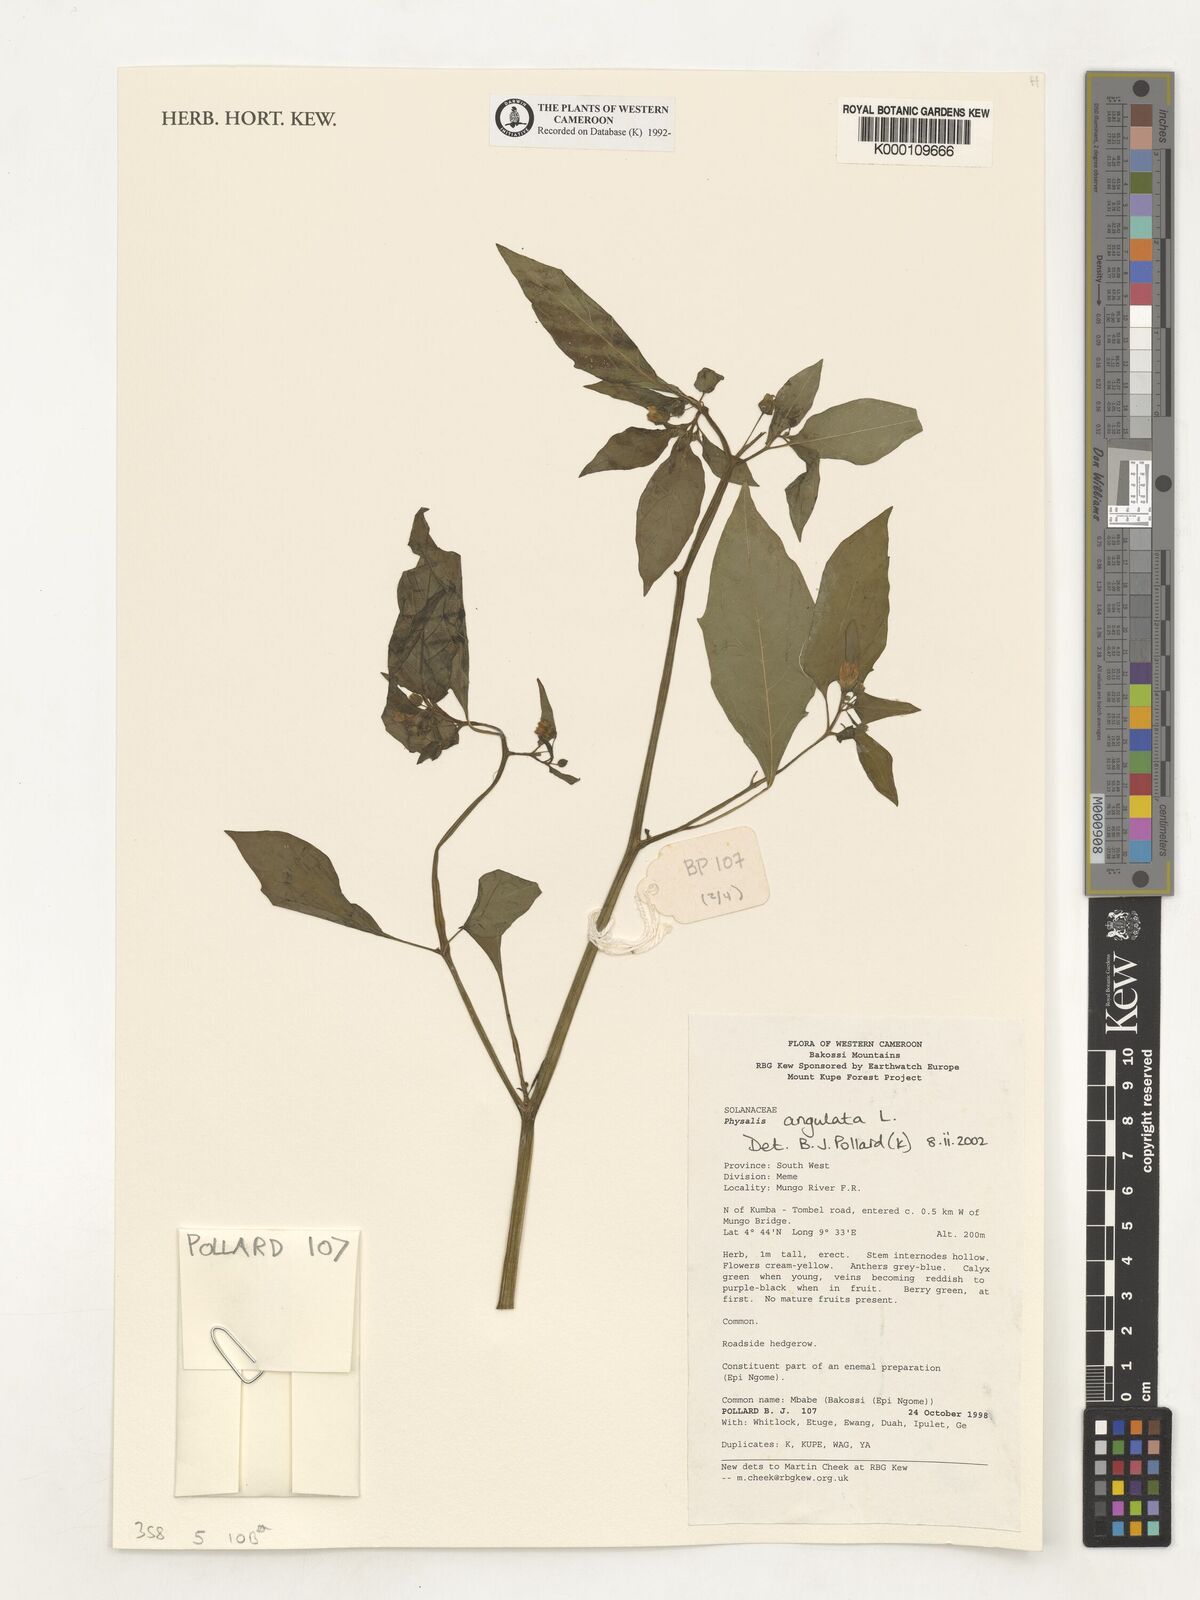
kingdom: Plantae
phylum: Tracheophyta
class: Magnoliopsida
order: Solanales
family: Solanaceae
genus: Physalis
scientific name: Physalis angulata
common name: Angular winter-cherry
